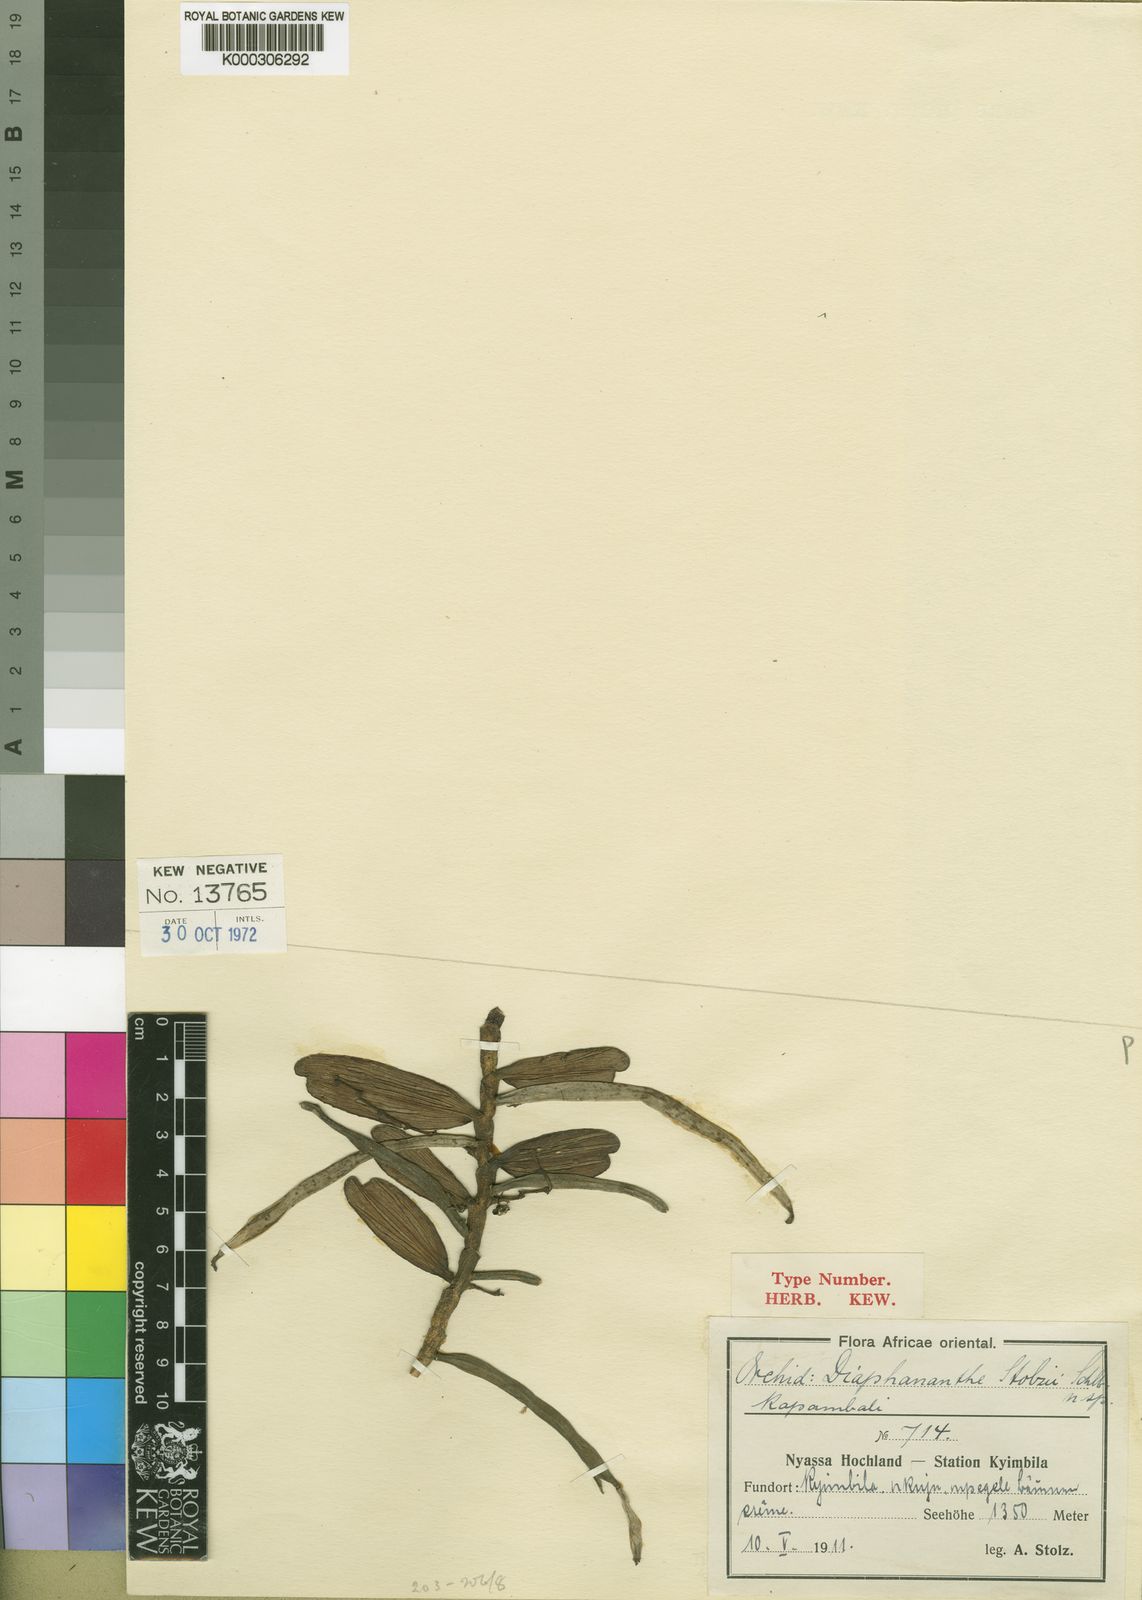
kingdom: Plantae
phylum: Tracheophyta
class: Liliopsida
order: Asparagales
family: Orchidaceae
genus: Rhipidoglossum
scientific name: Rhipidoglossum stolzii
